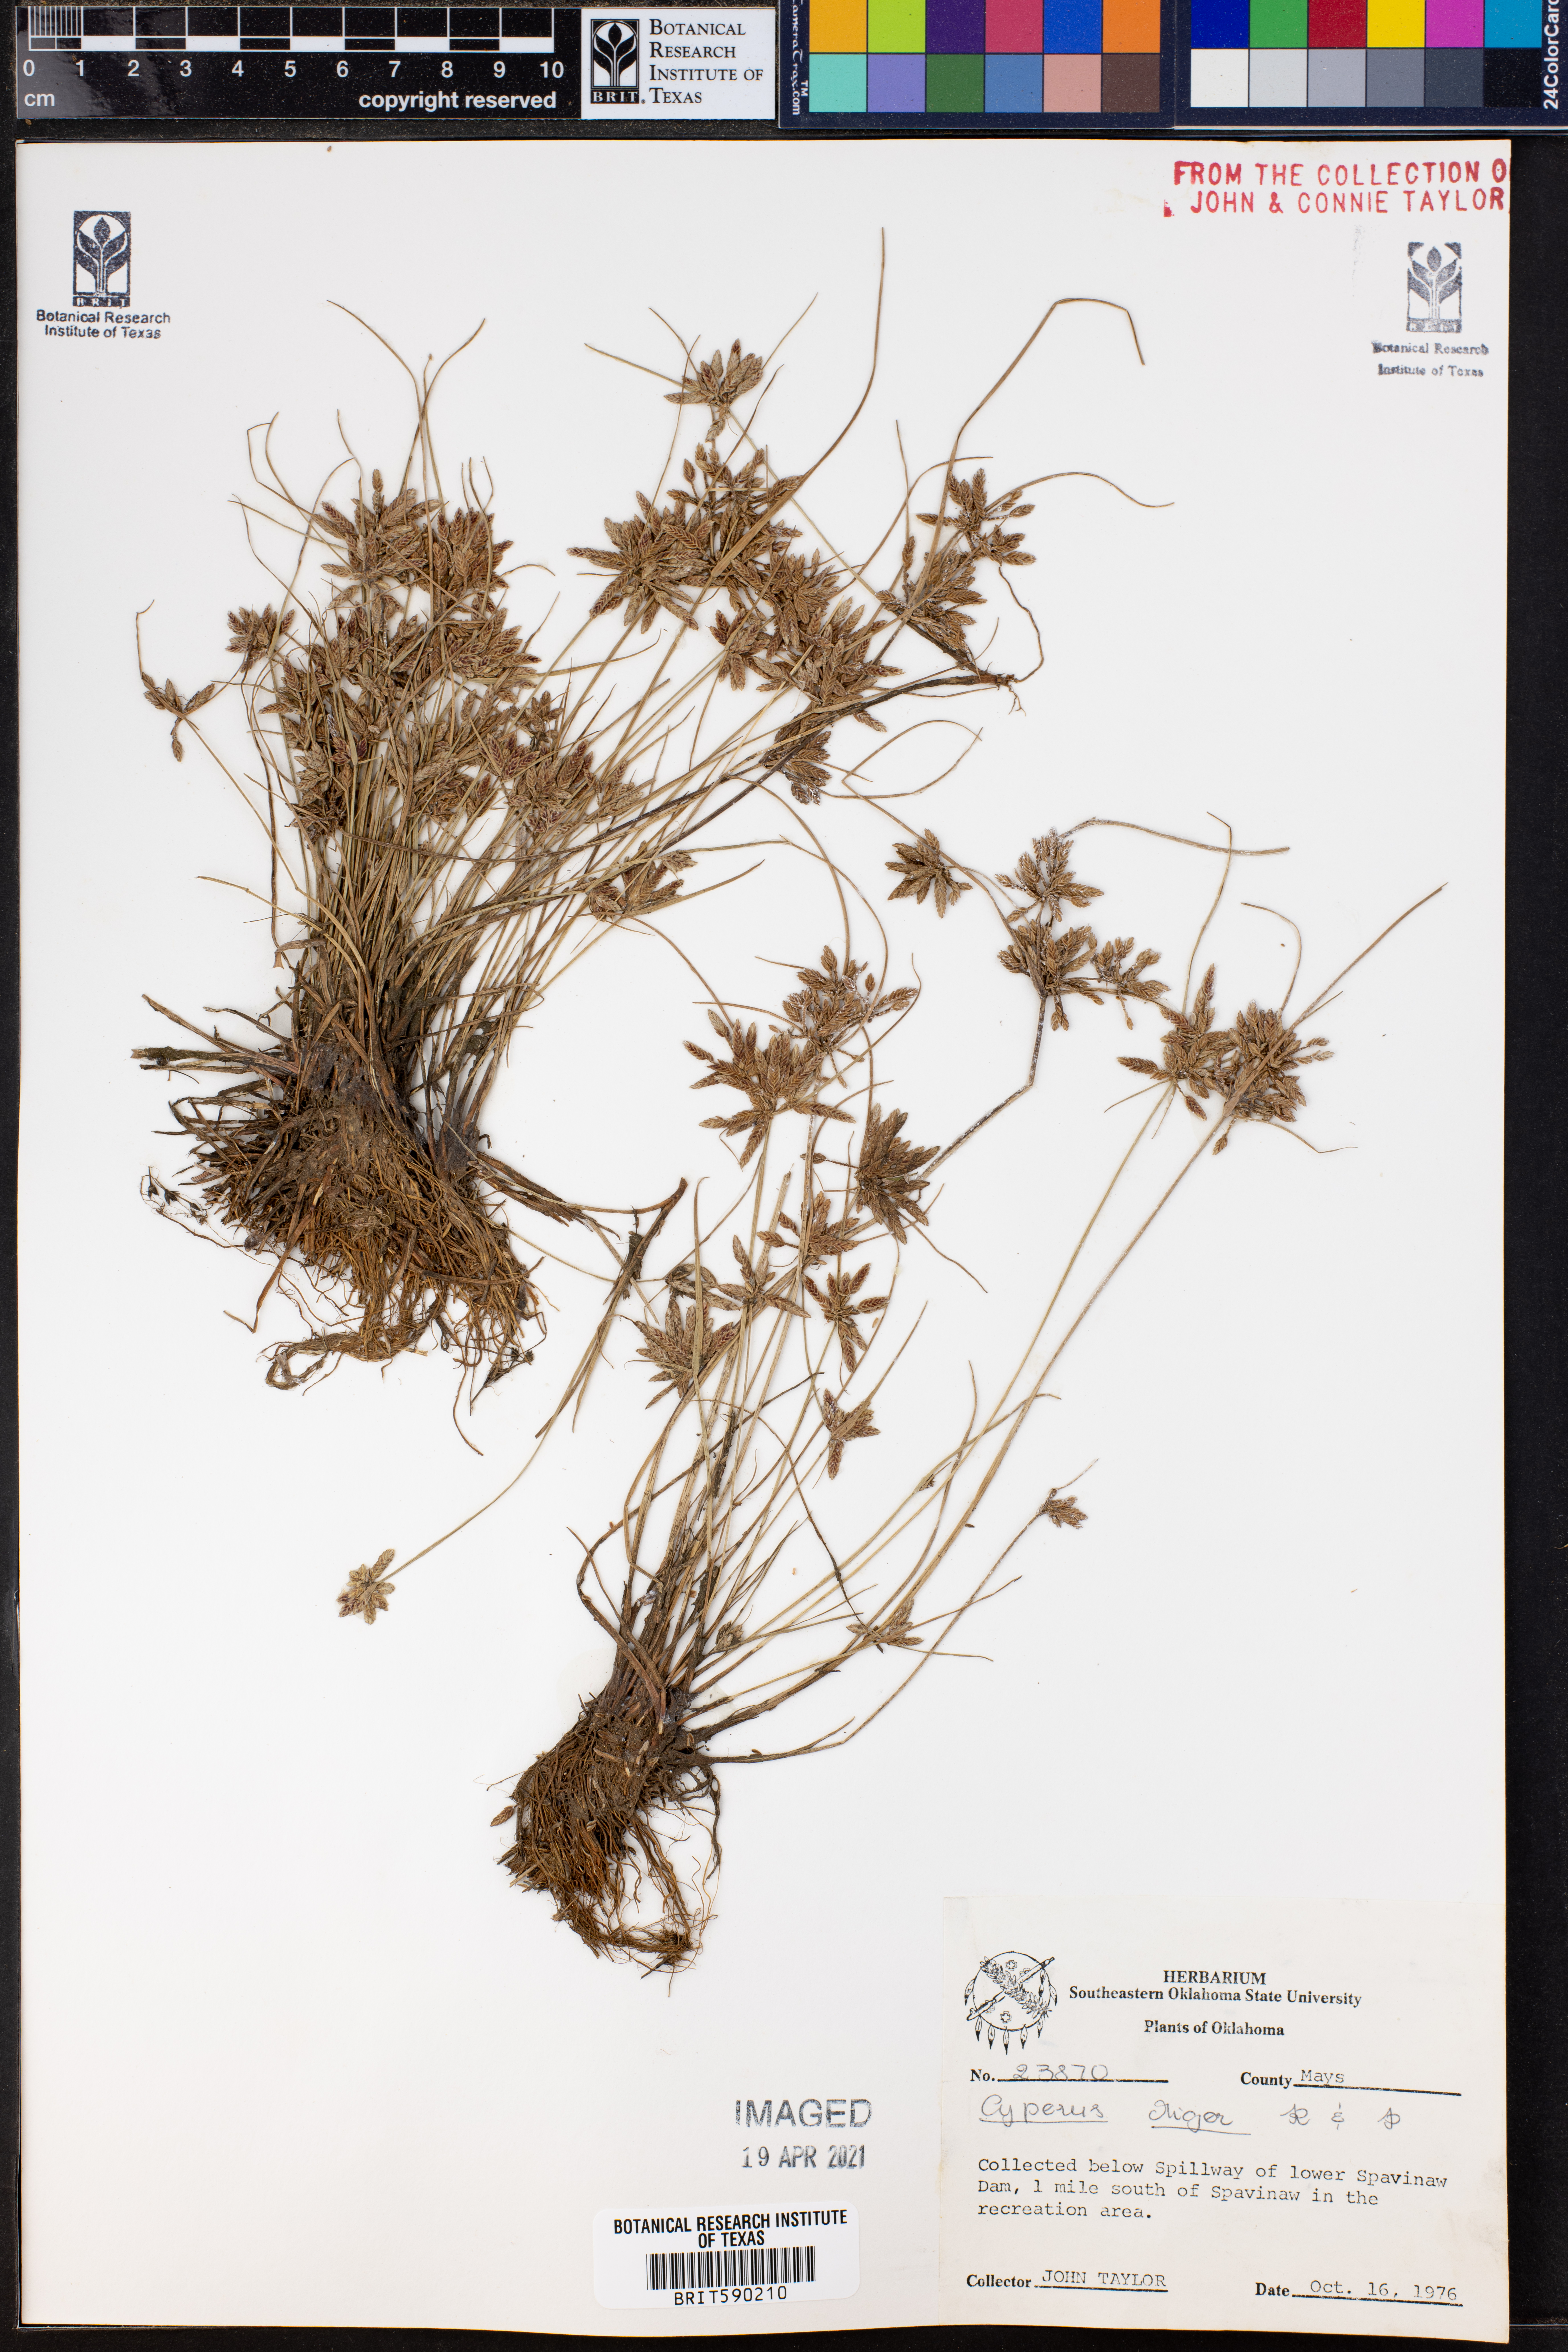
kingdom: Plantae
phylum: Tracheophyta
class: Liliopsida
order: Poales
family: Cyperaceae
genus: Cyperus
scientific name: Cyperus melanostachyus
